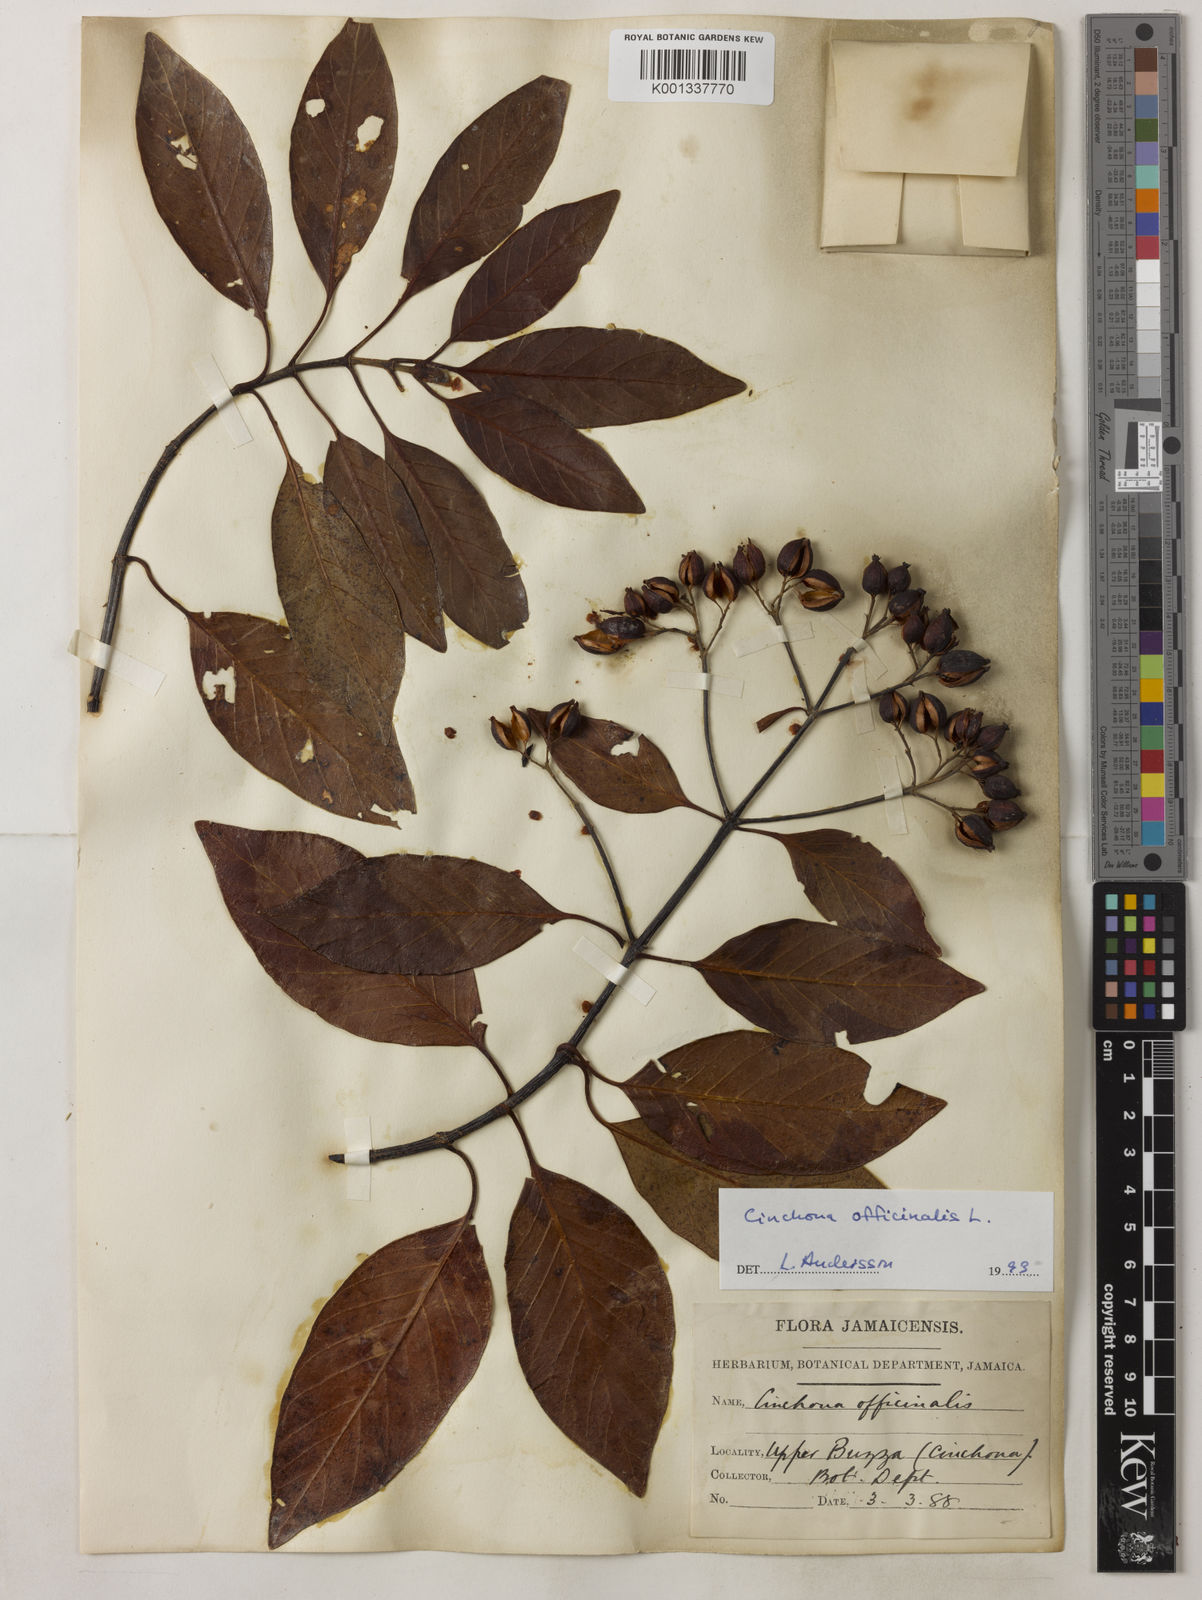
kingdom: Plantae
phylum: Tracheophyta
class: Magnoliopsida
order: Gentianales
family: Rubiaceae
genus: Cinchona
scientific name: Cinchona officinalis
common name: Lojabark
